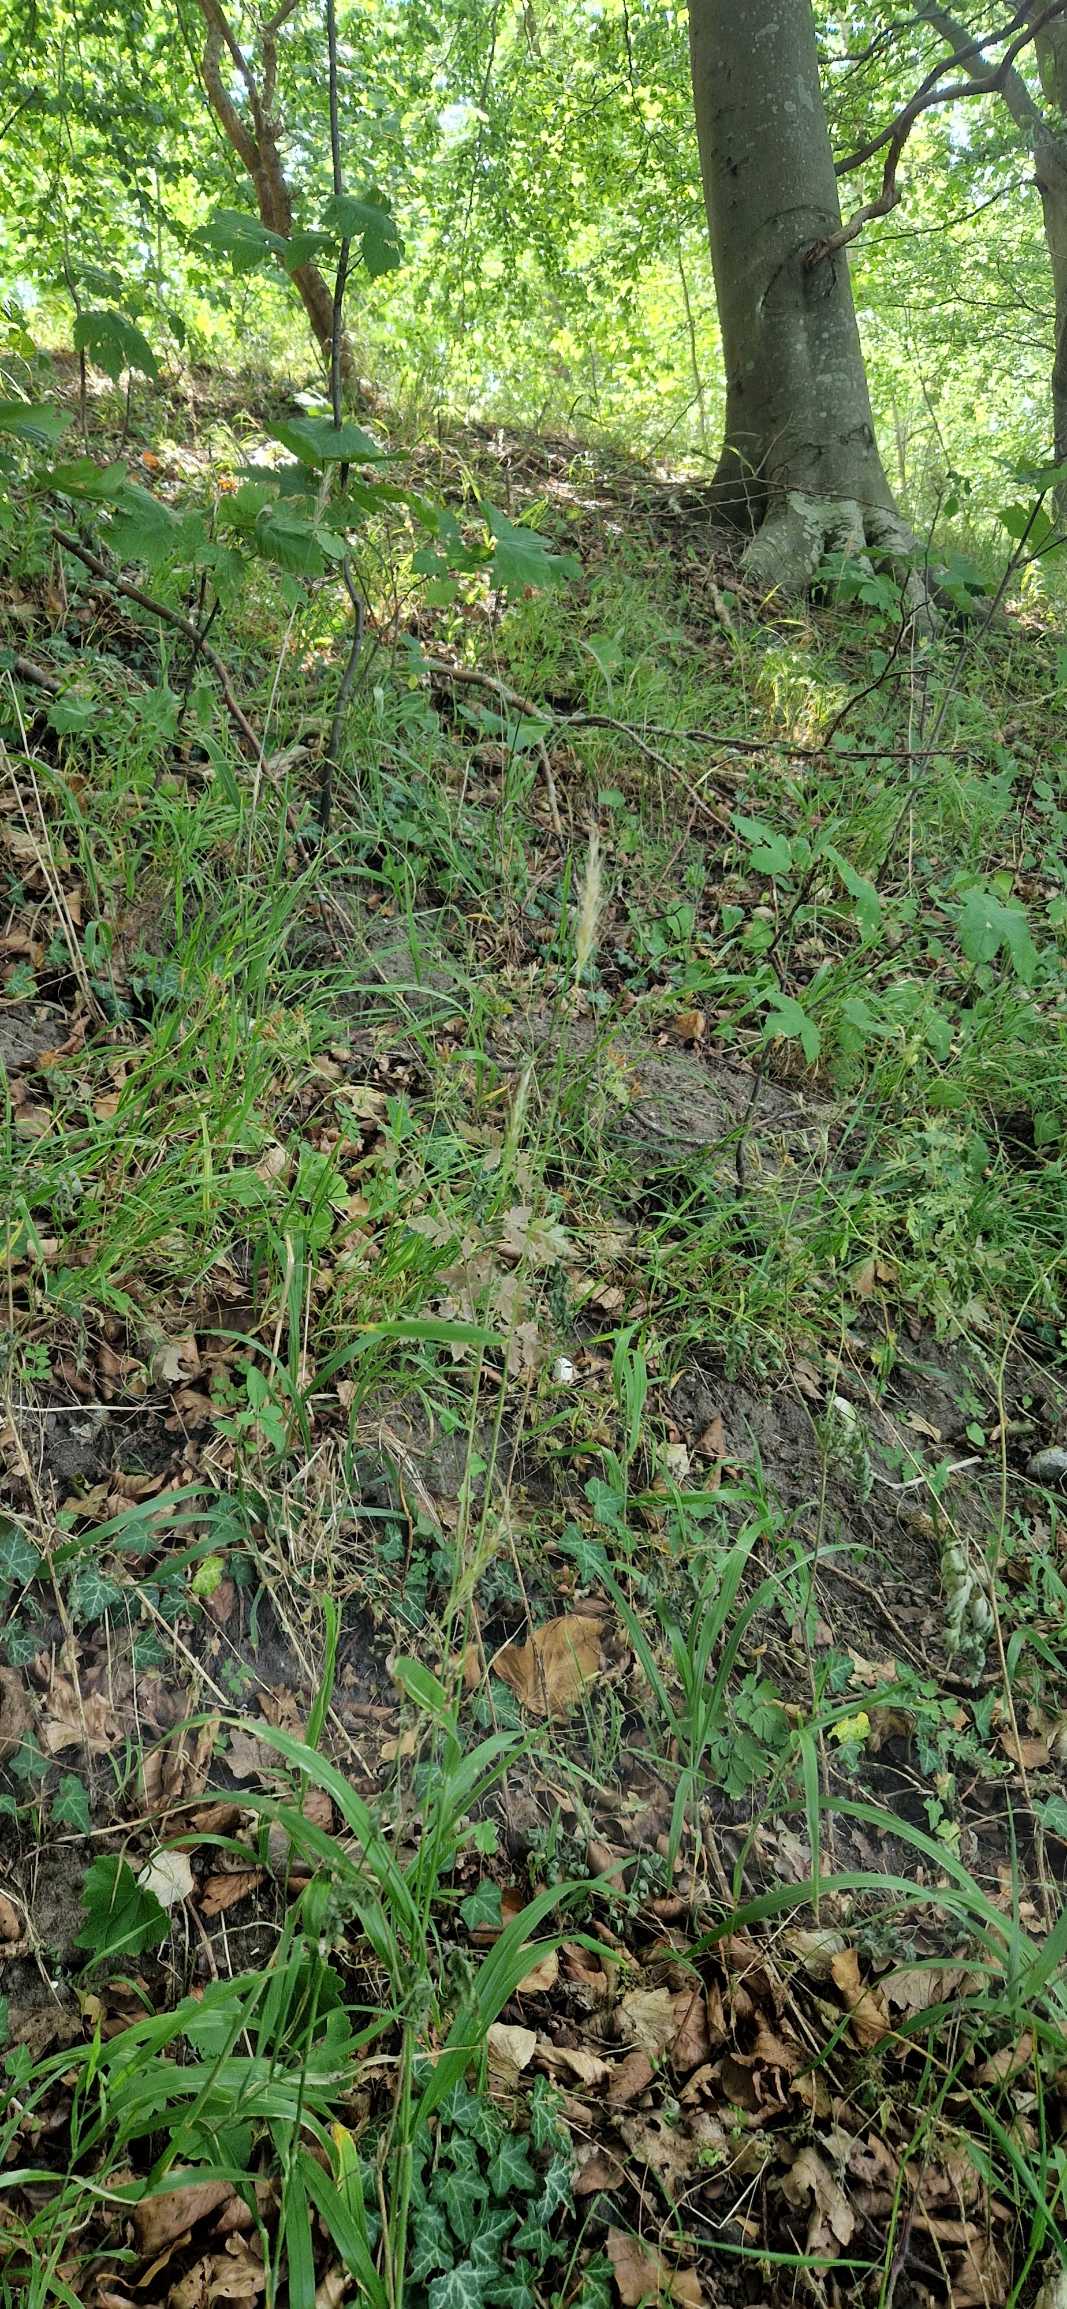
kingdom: Plantae
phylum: Tracheophyta
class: Liliopsida
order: Poales
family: Poaceae
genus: Hordelymus
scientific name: Hordelymus europaeus
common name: Skovbyg
